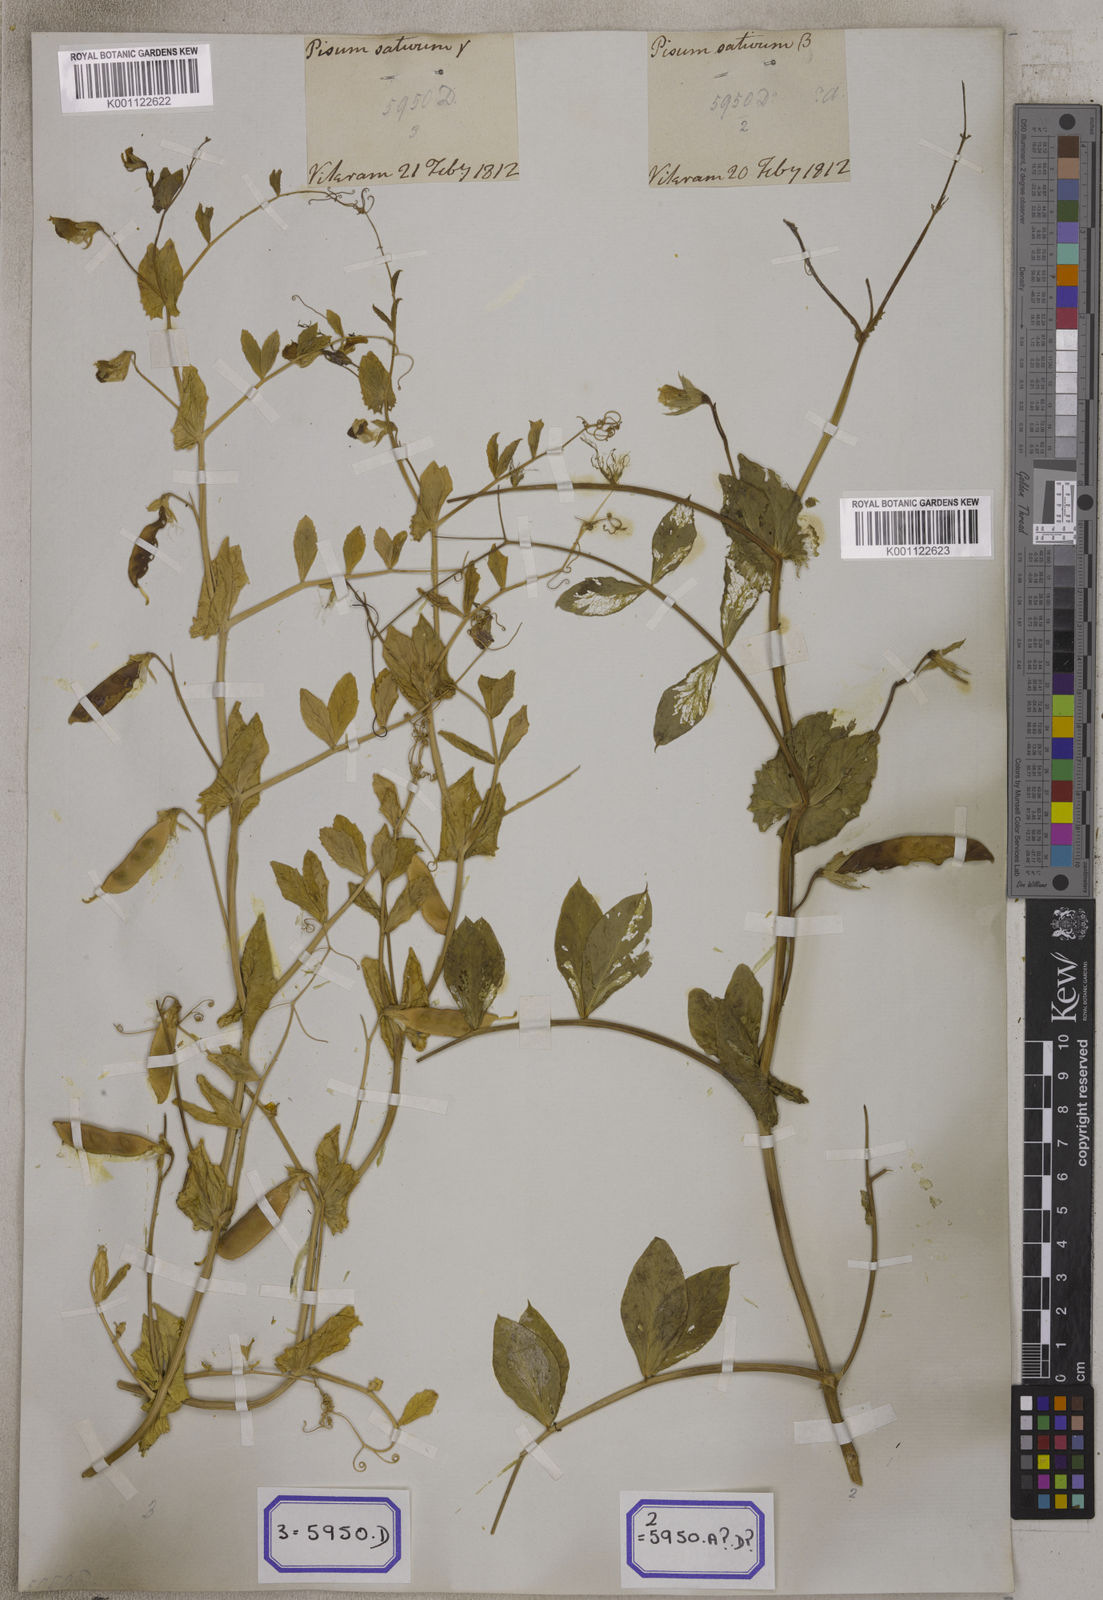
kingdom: Plantae
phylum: Tracheophyta
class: Magnoliopsida
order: Fabales
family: Fabaceae
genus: Lathyrus
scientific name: Lathyrus oleraceus
